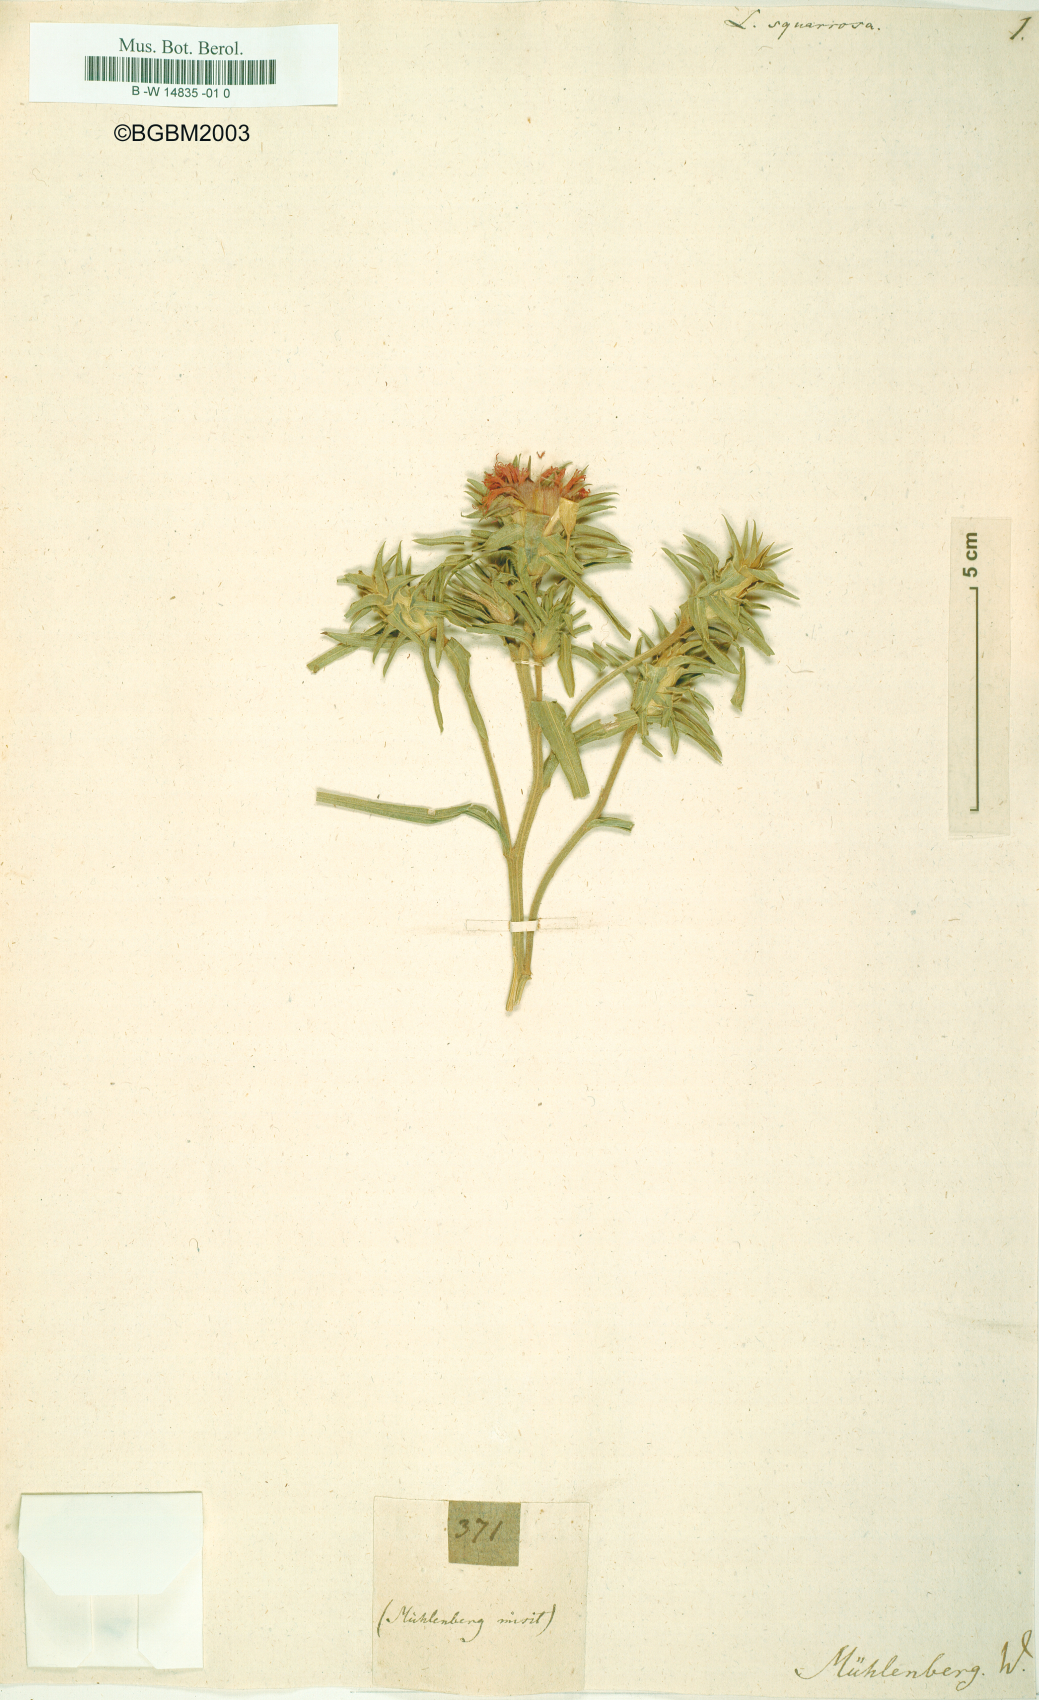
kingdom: Plantae
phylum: Tracheophyta
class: Magnoliopsida
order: Asterales
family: Asteraceae
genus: Liatris
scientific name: Liatris squarrosa
